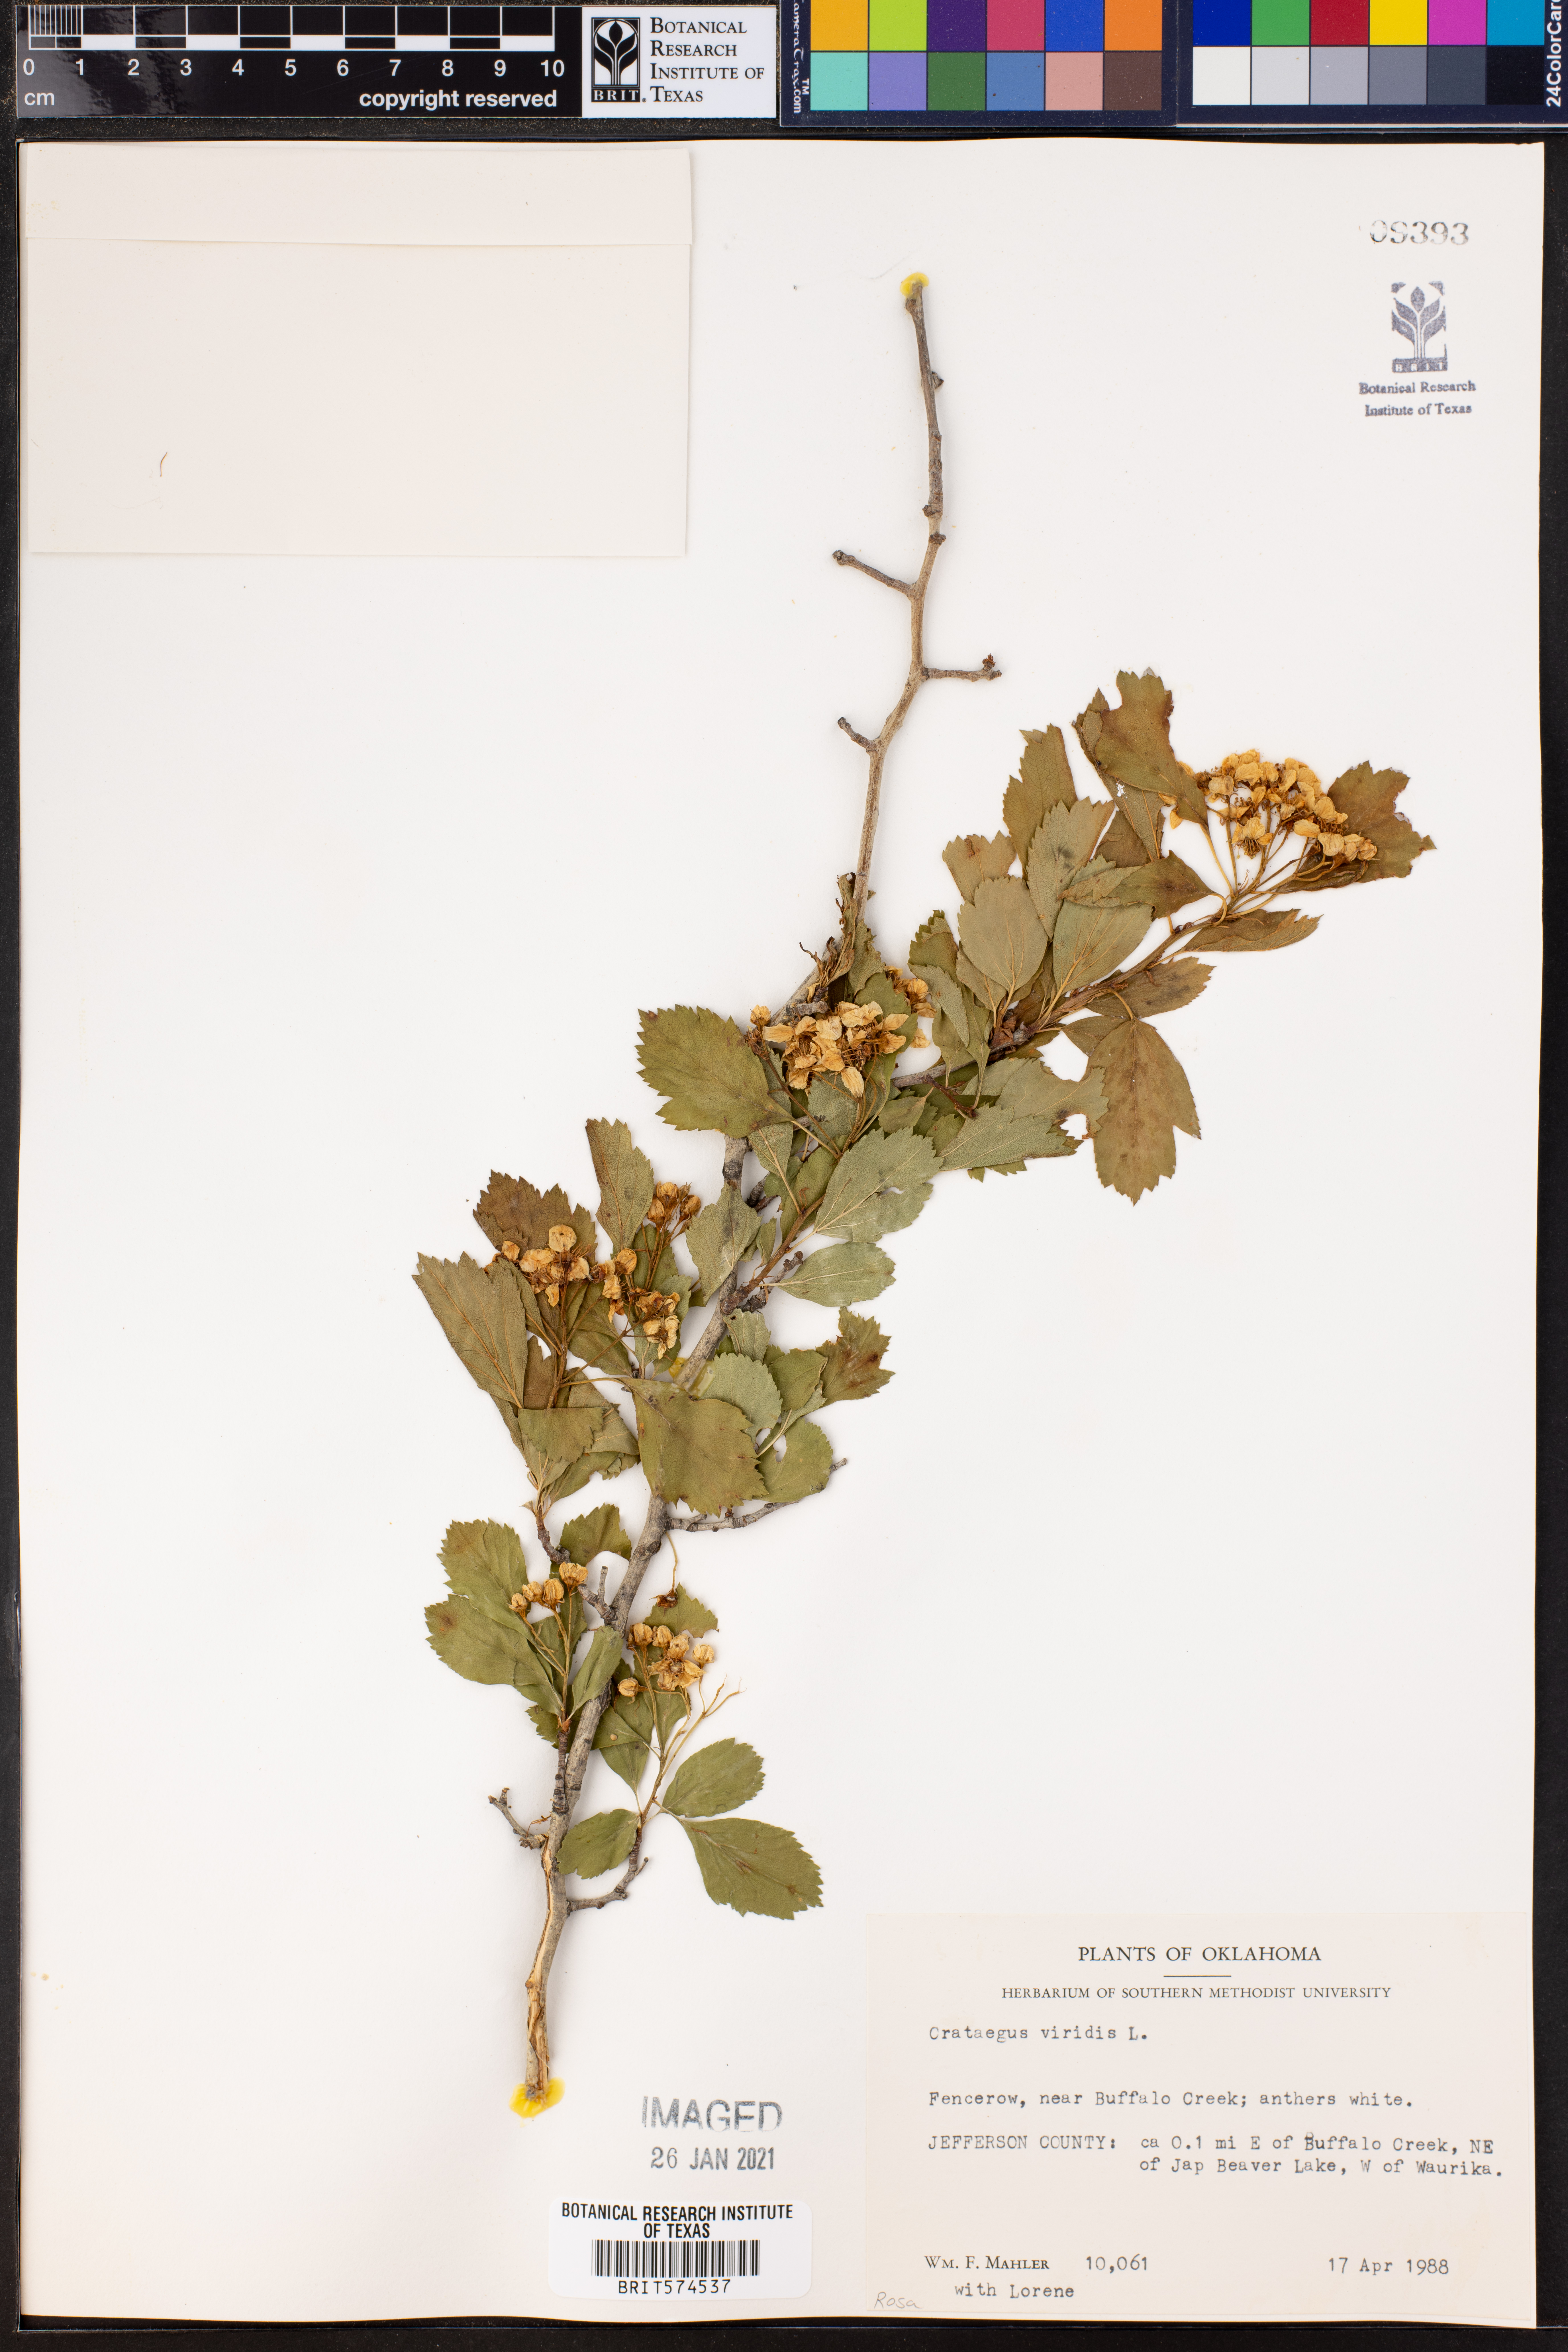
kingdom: Plantae
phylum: Tracheophyta
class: Magnoliopsida
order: Rosales
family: Rosaceae
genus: Crataegus
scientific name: Crataegus viridis
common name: Southernthorn
